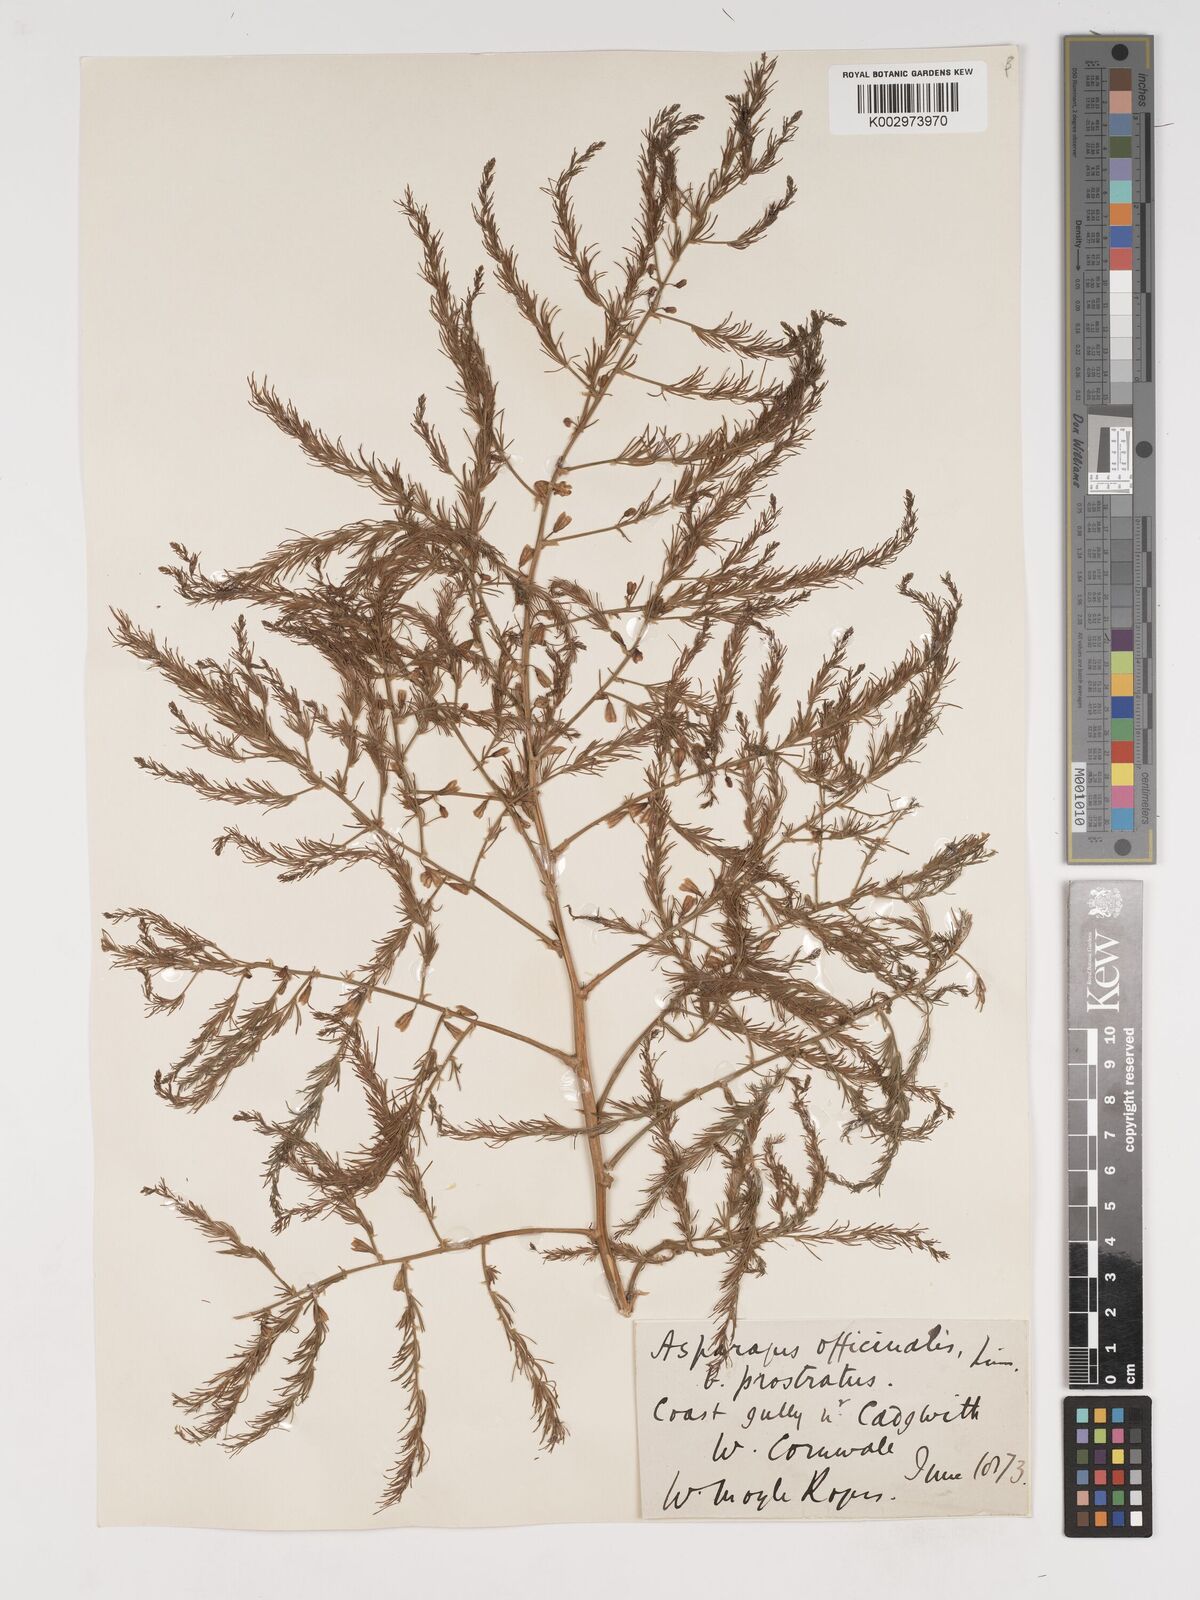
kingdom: Plantae
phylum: Tracheophyta
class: Liliopsida
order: Asparagales
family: Asparagaceae
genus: Asparagus
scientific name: Asparagus maritimus
